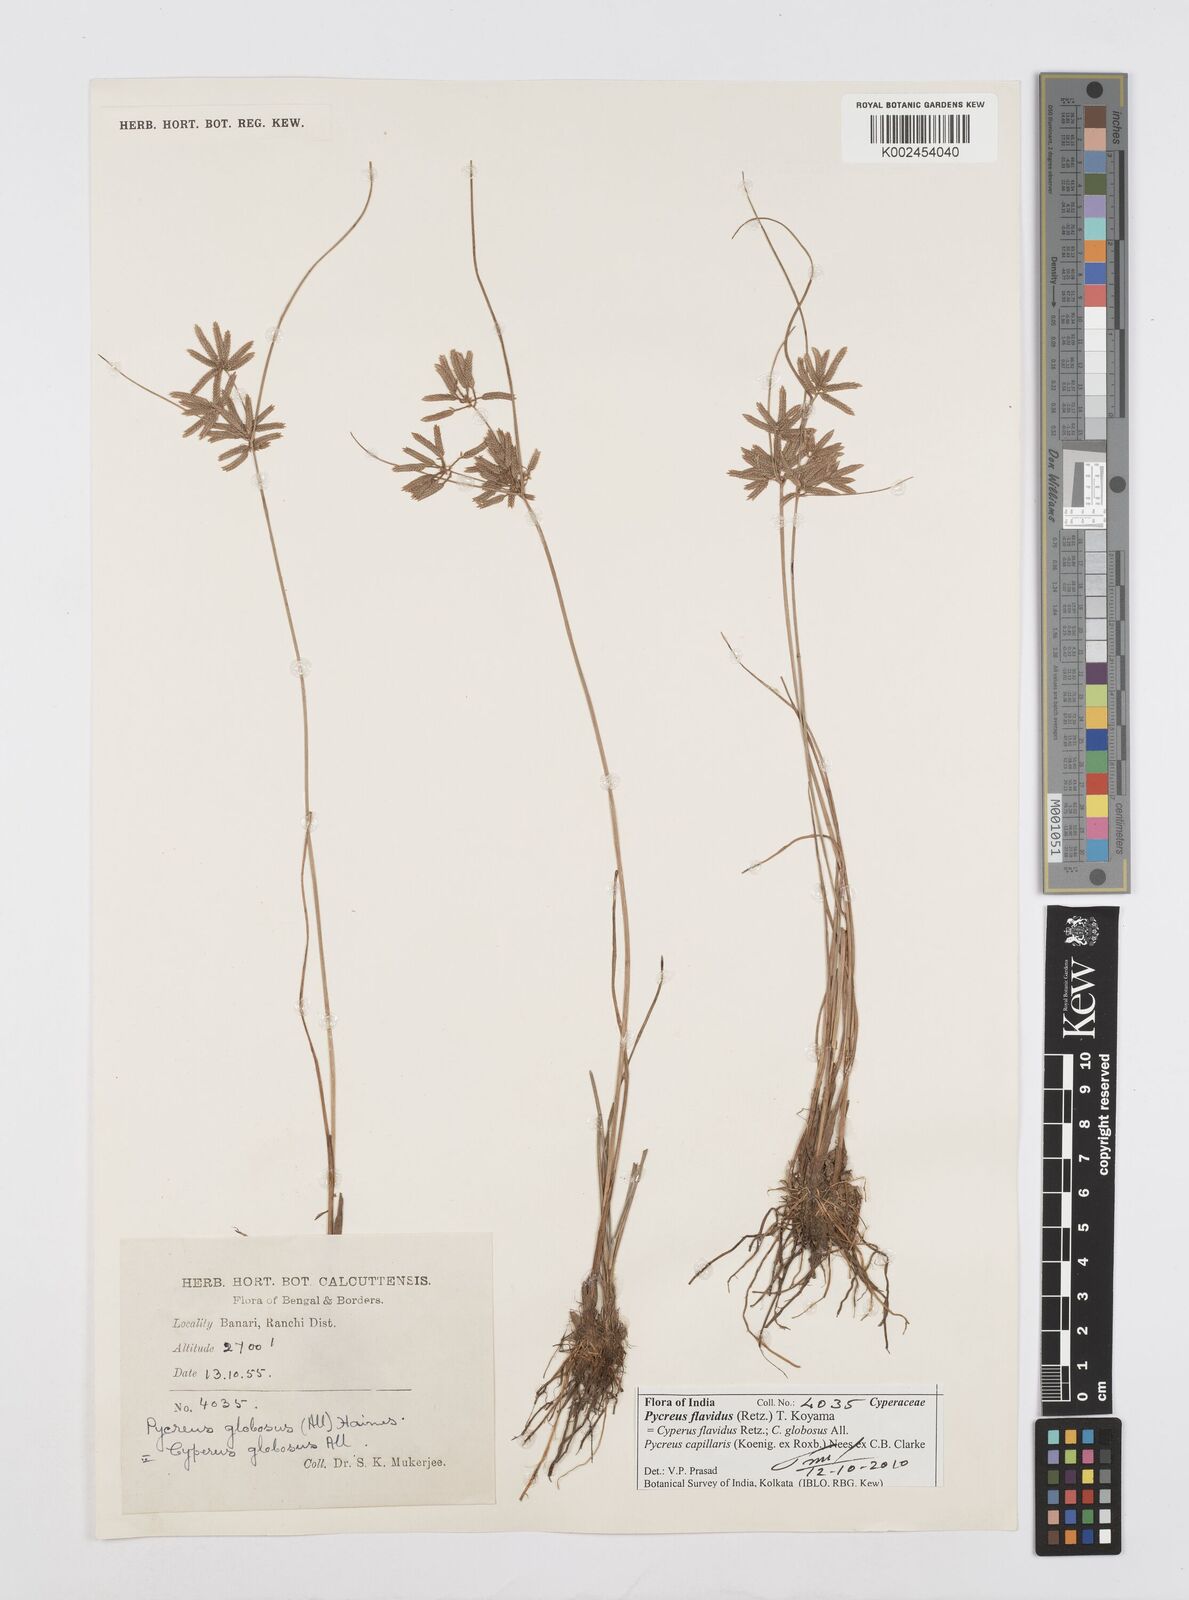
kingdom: Plantae
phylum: Tracheophyta
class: Liliopsida
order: Poales
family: Cyperaceae
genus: Cyperus
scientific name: Cyperus flavidus
